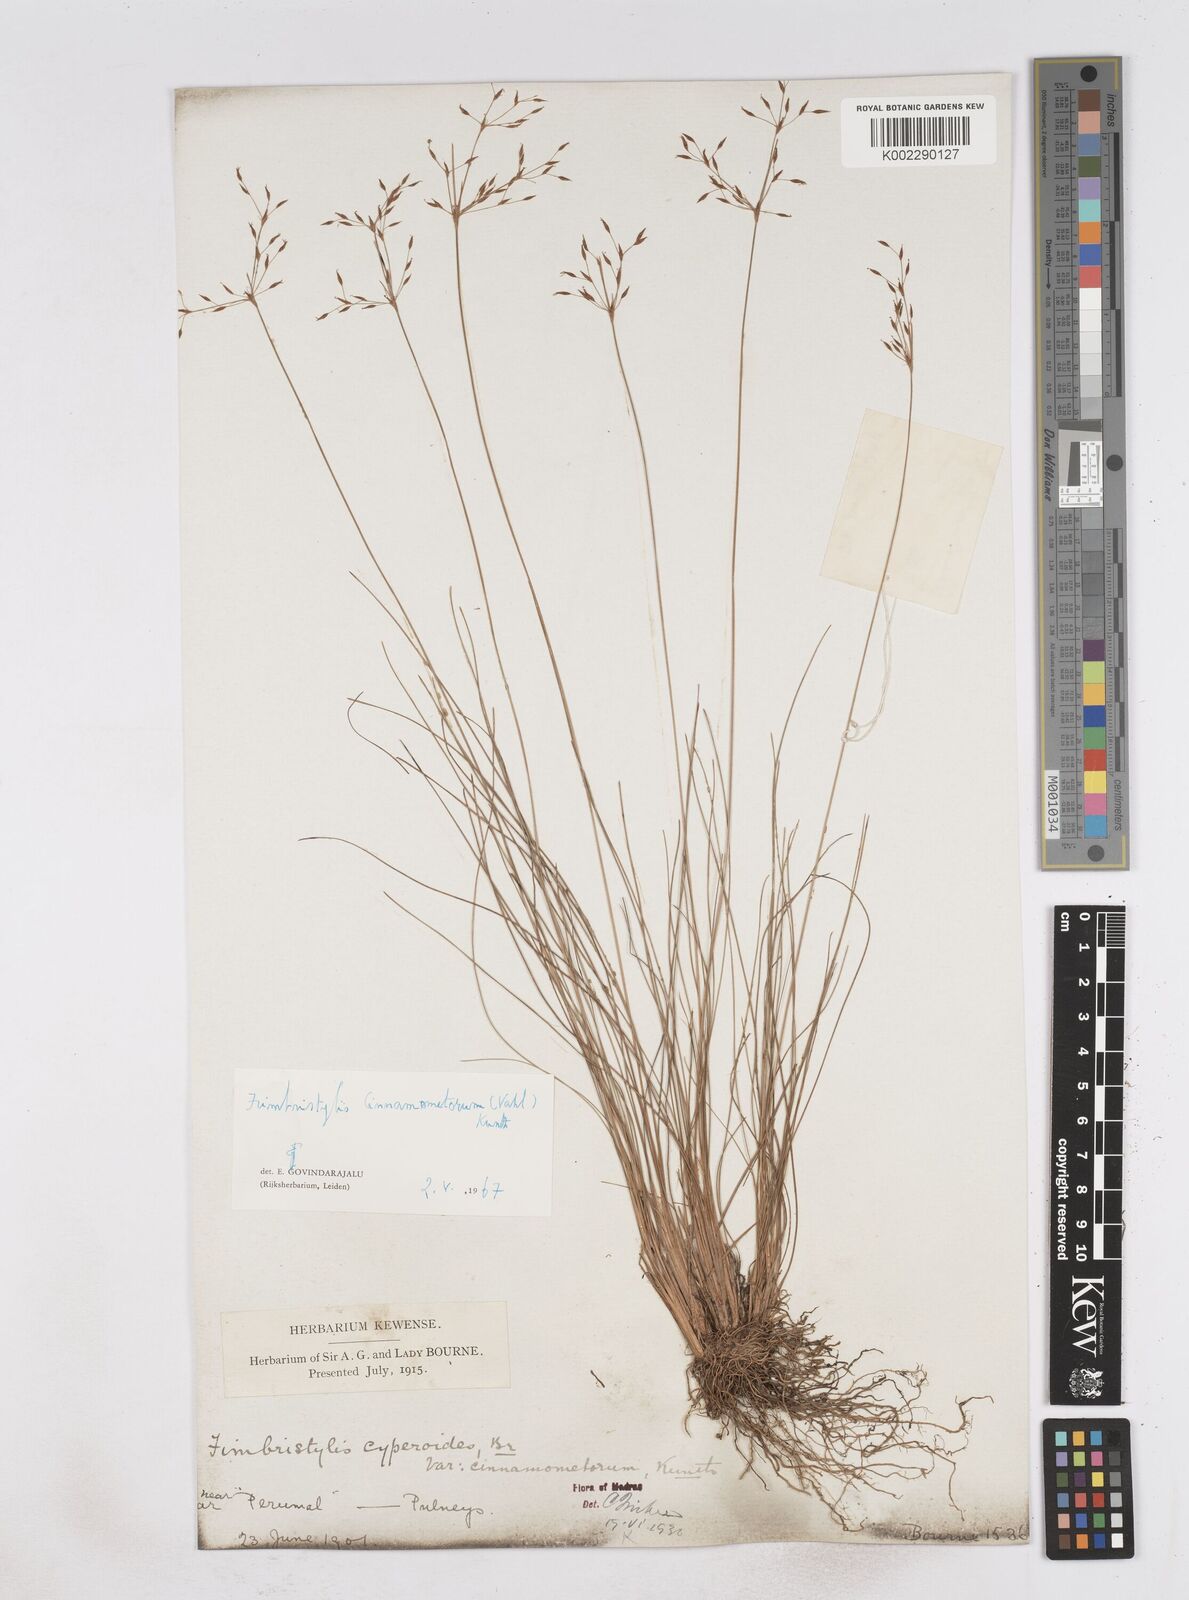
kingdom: Plantae
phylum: Tracheophyta
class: Liliopsida
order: Poales
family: Cyperaceae
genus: Fimbristylis
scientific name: Fimbristylis cinnamometorum
